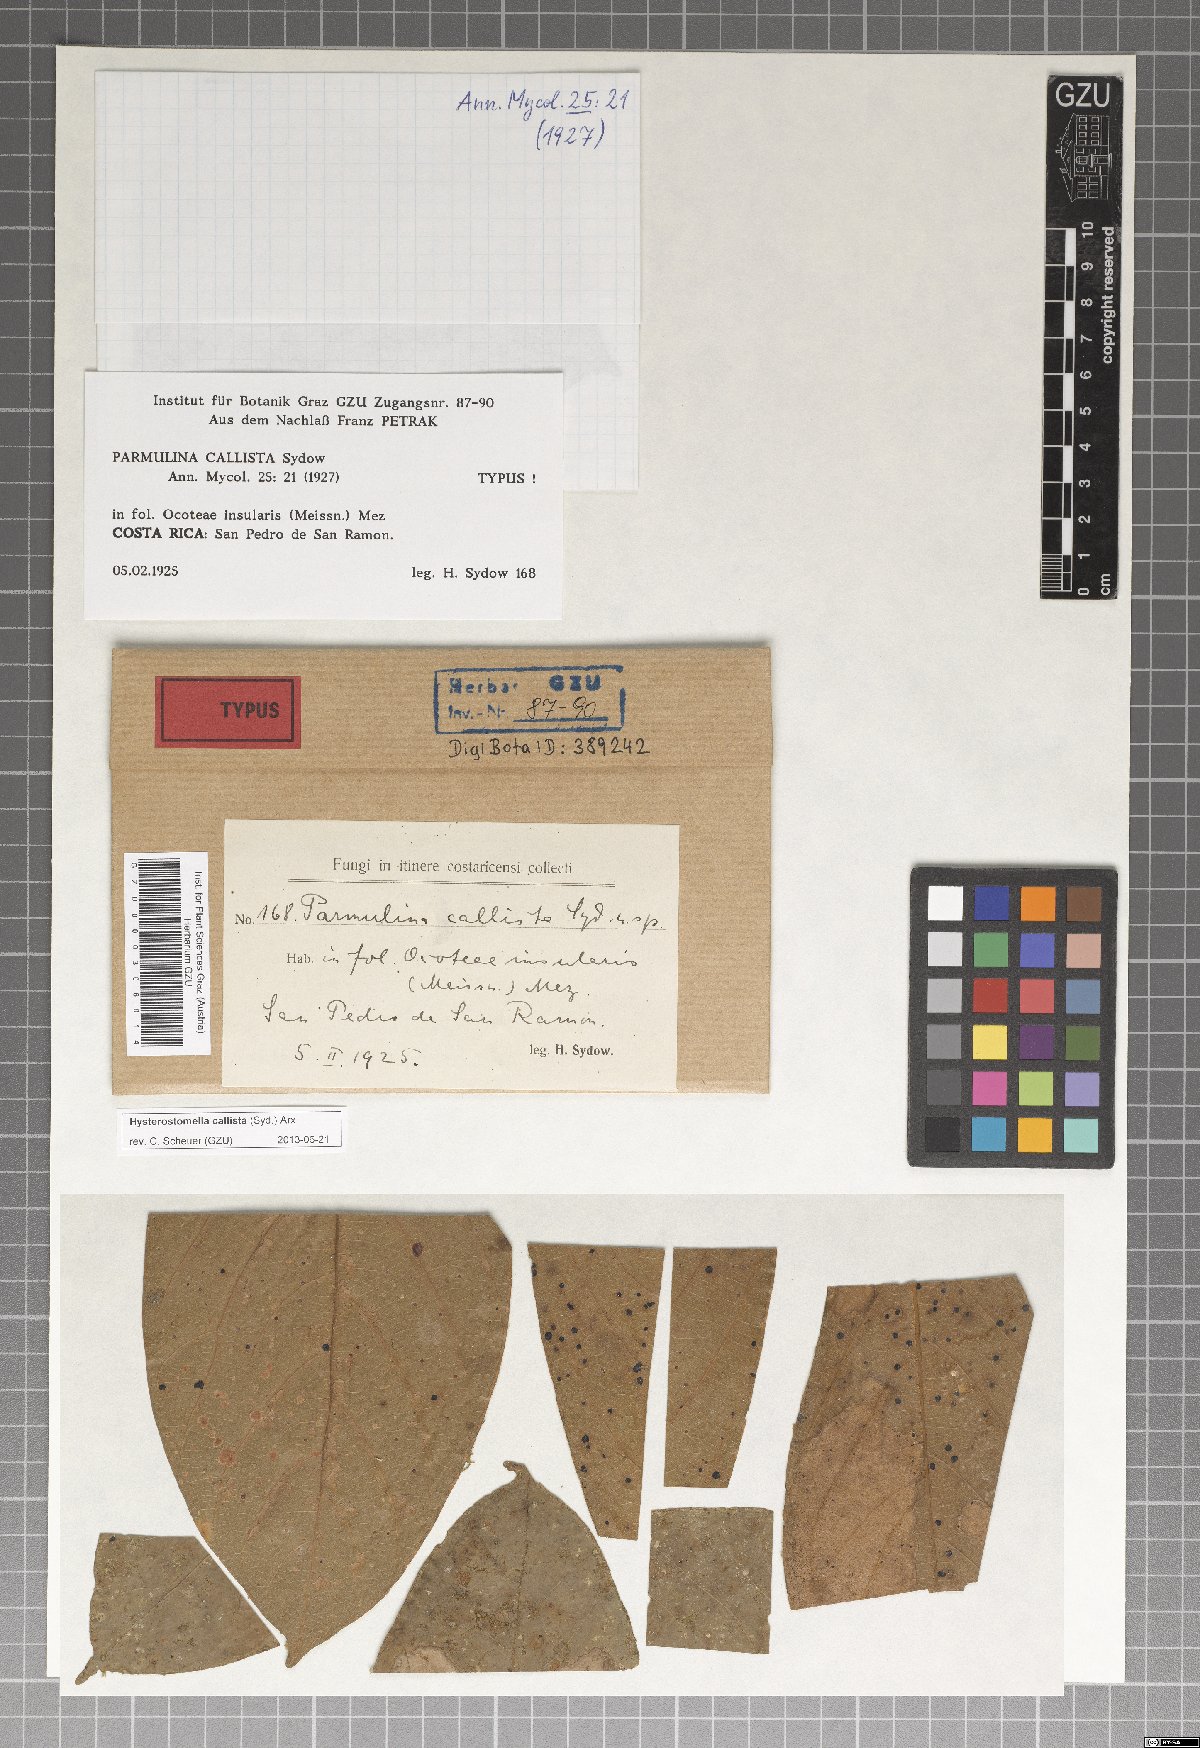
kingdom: Fungi
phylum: Ascomycota
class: Dothideomycetes
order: Asterinales
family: Parmulariaceae
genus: Hysterostomella
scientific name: Hysterostomella callista
